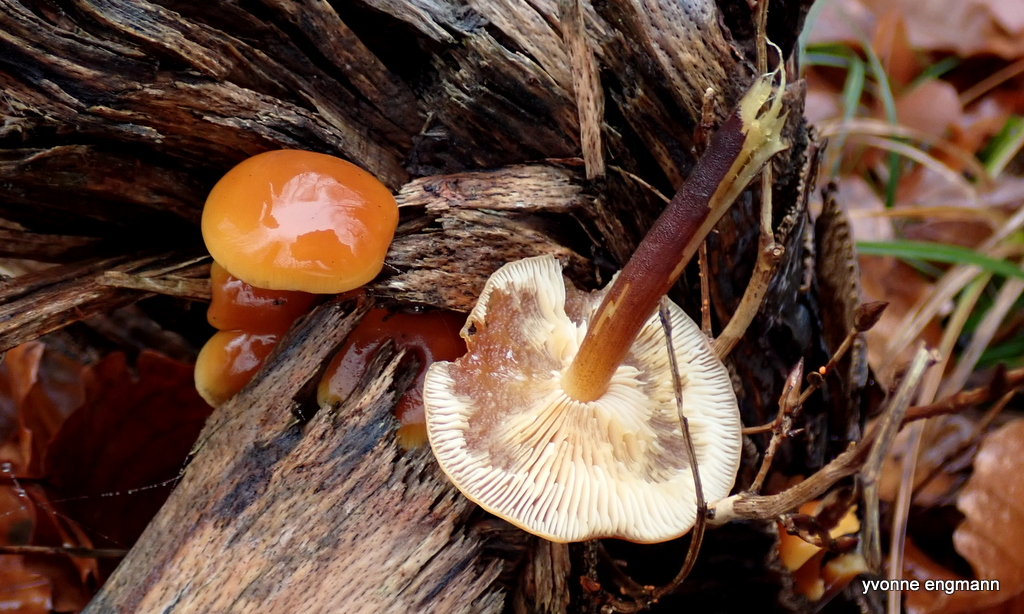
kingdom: Fungi
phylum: Basidiomycota
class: Agaricomycetes
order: Agaricales
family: Physalacriaceae
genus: Flammulina
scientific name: Flammulina
